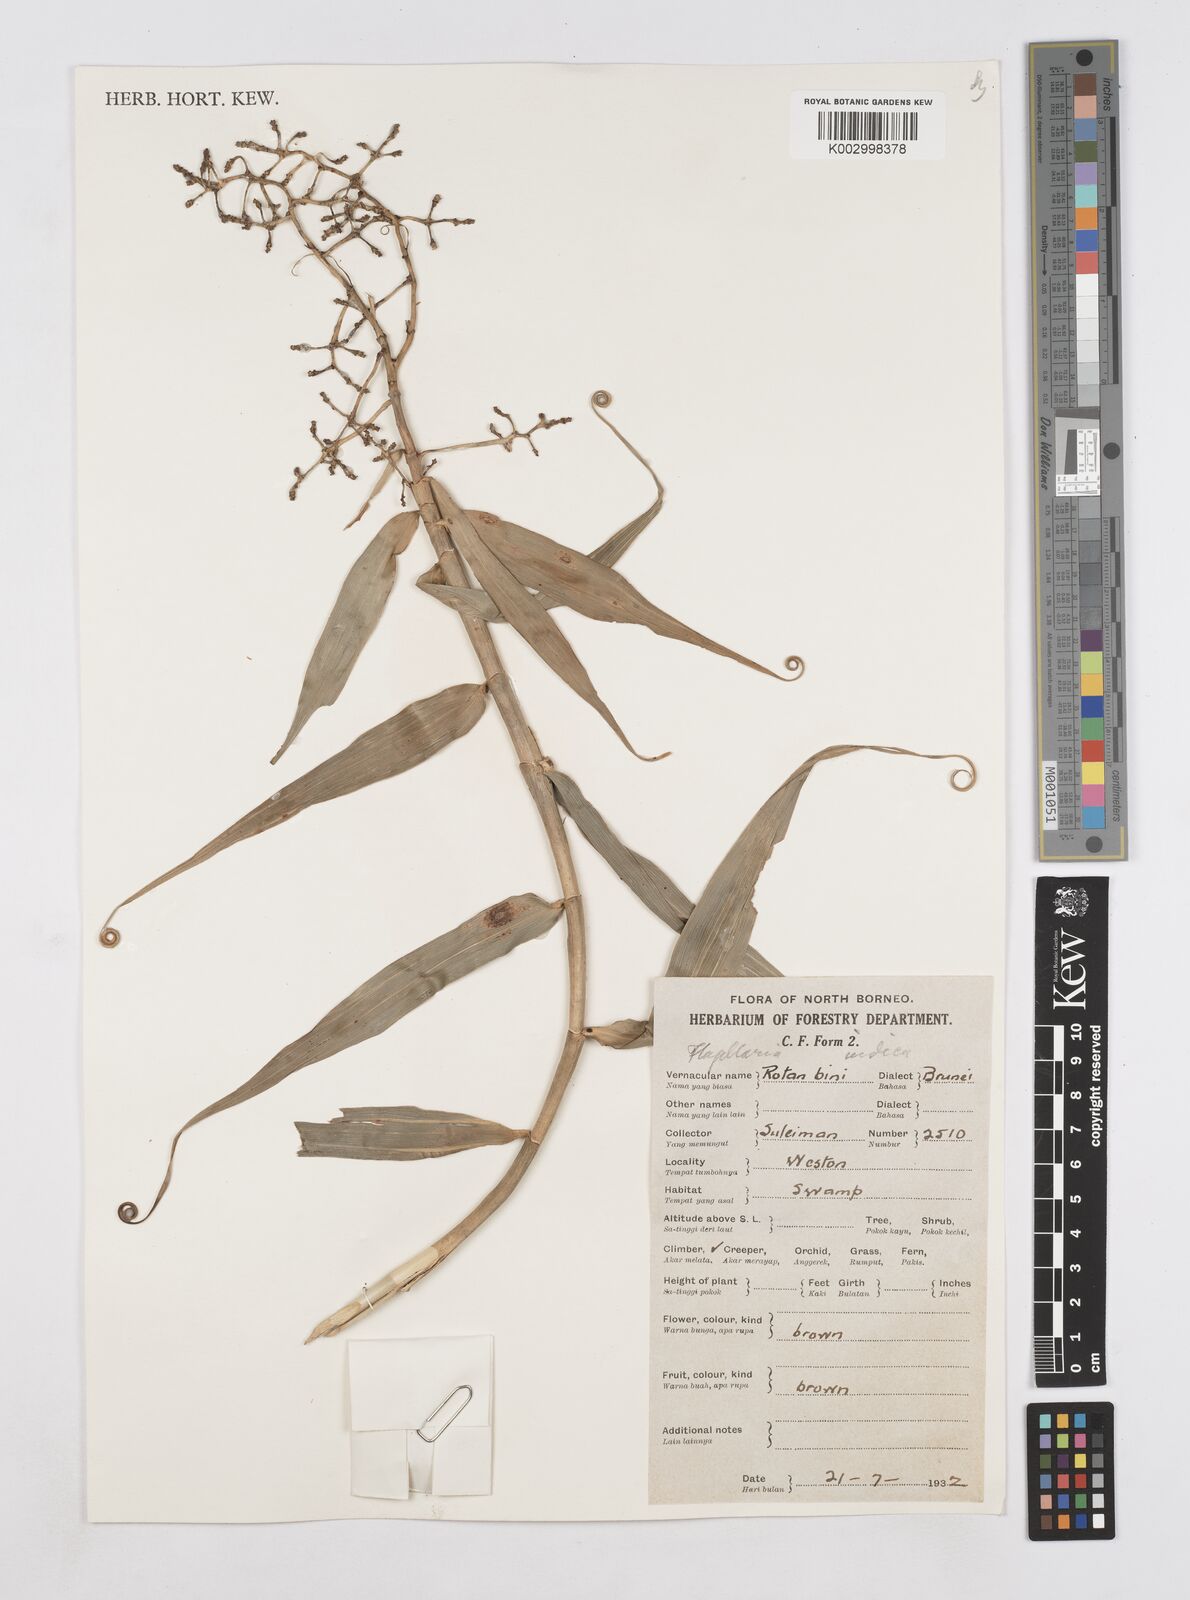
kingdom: Plantae
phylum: Tracheophyta
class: Liliopsida
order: Poales
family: Flagellariaceae
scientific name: Flagellariaceae
